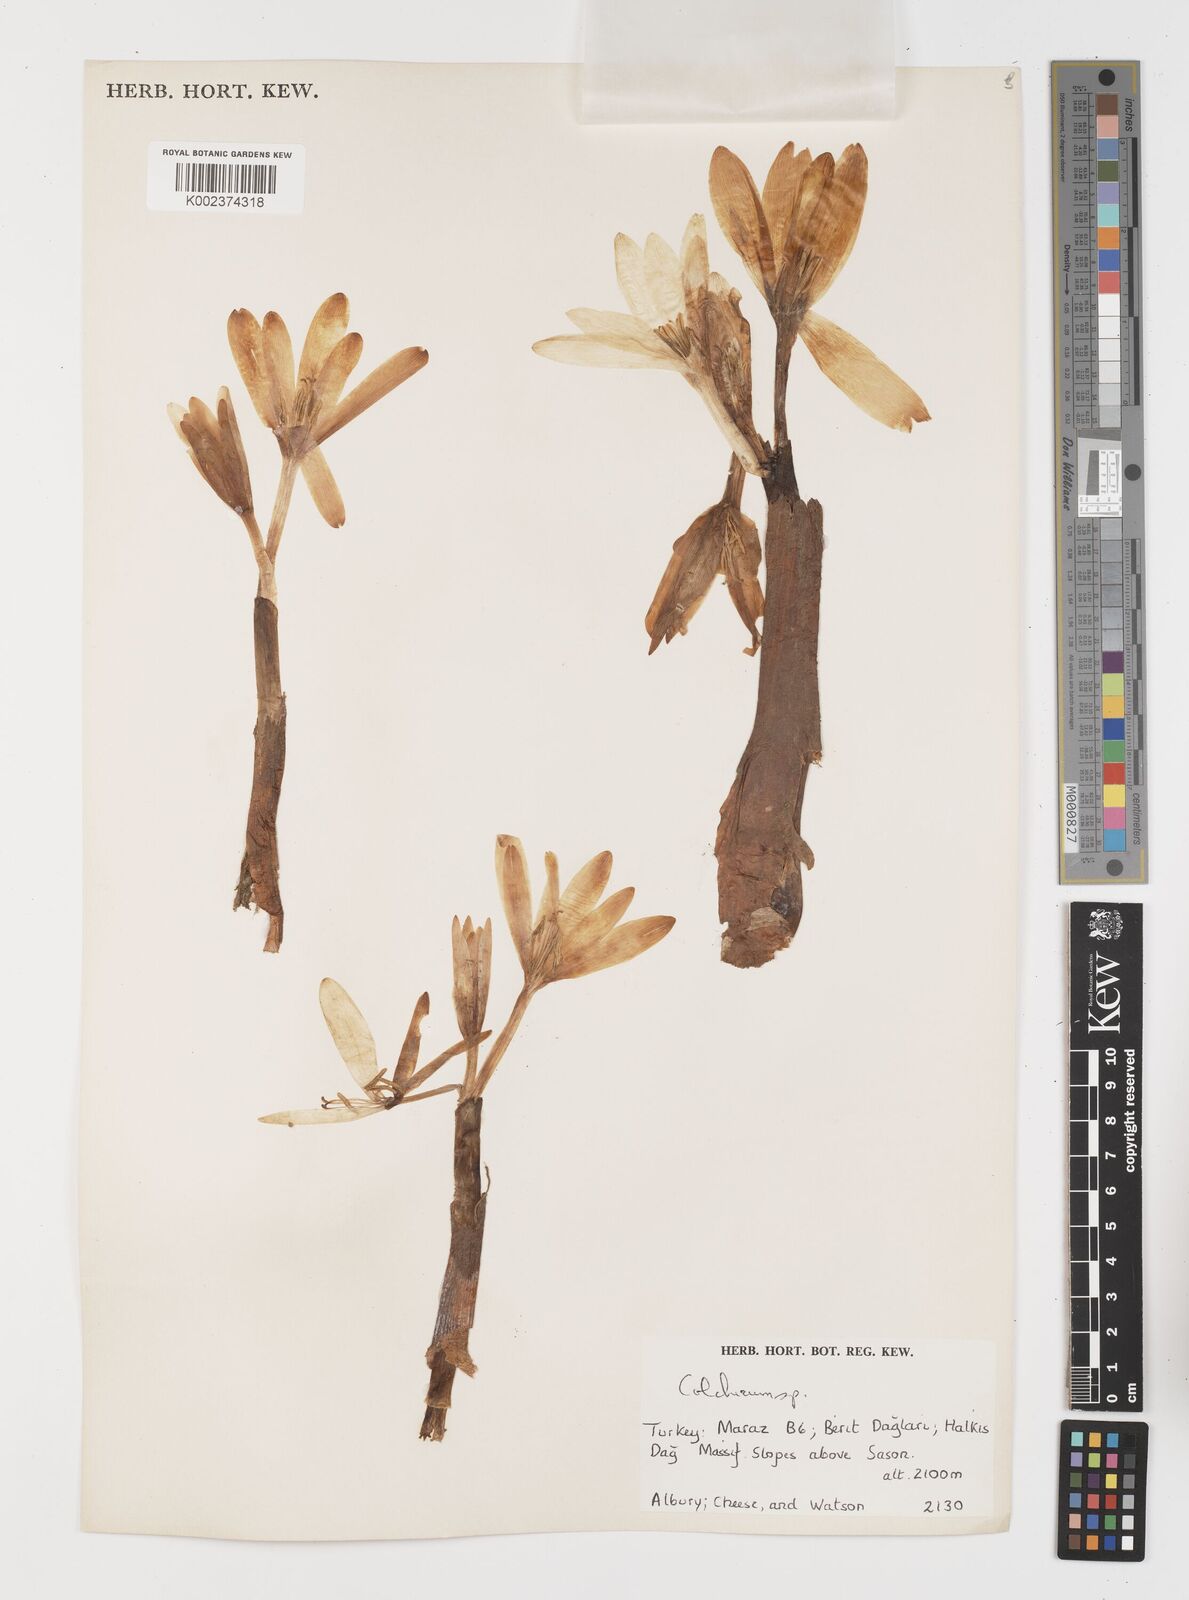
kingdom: Plantae
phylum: Tracheophyta
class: Liliopsida
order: Liliales
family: Colchicaceae
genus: Colchicum
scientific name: Colchicum
